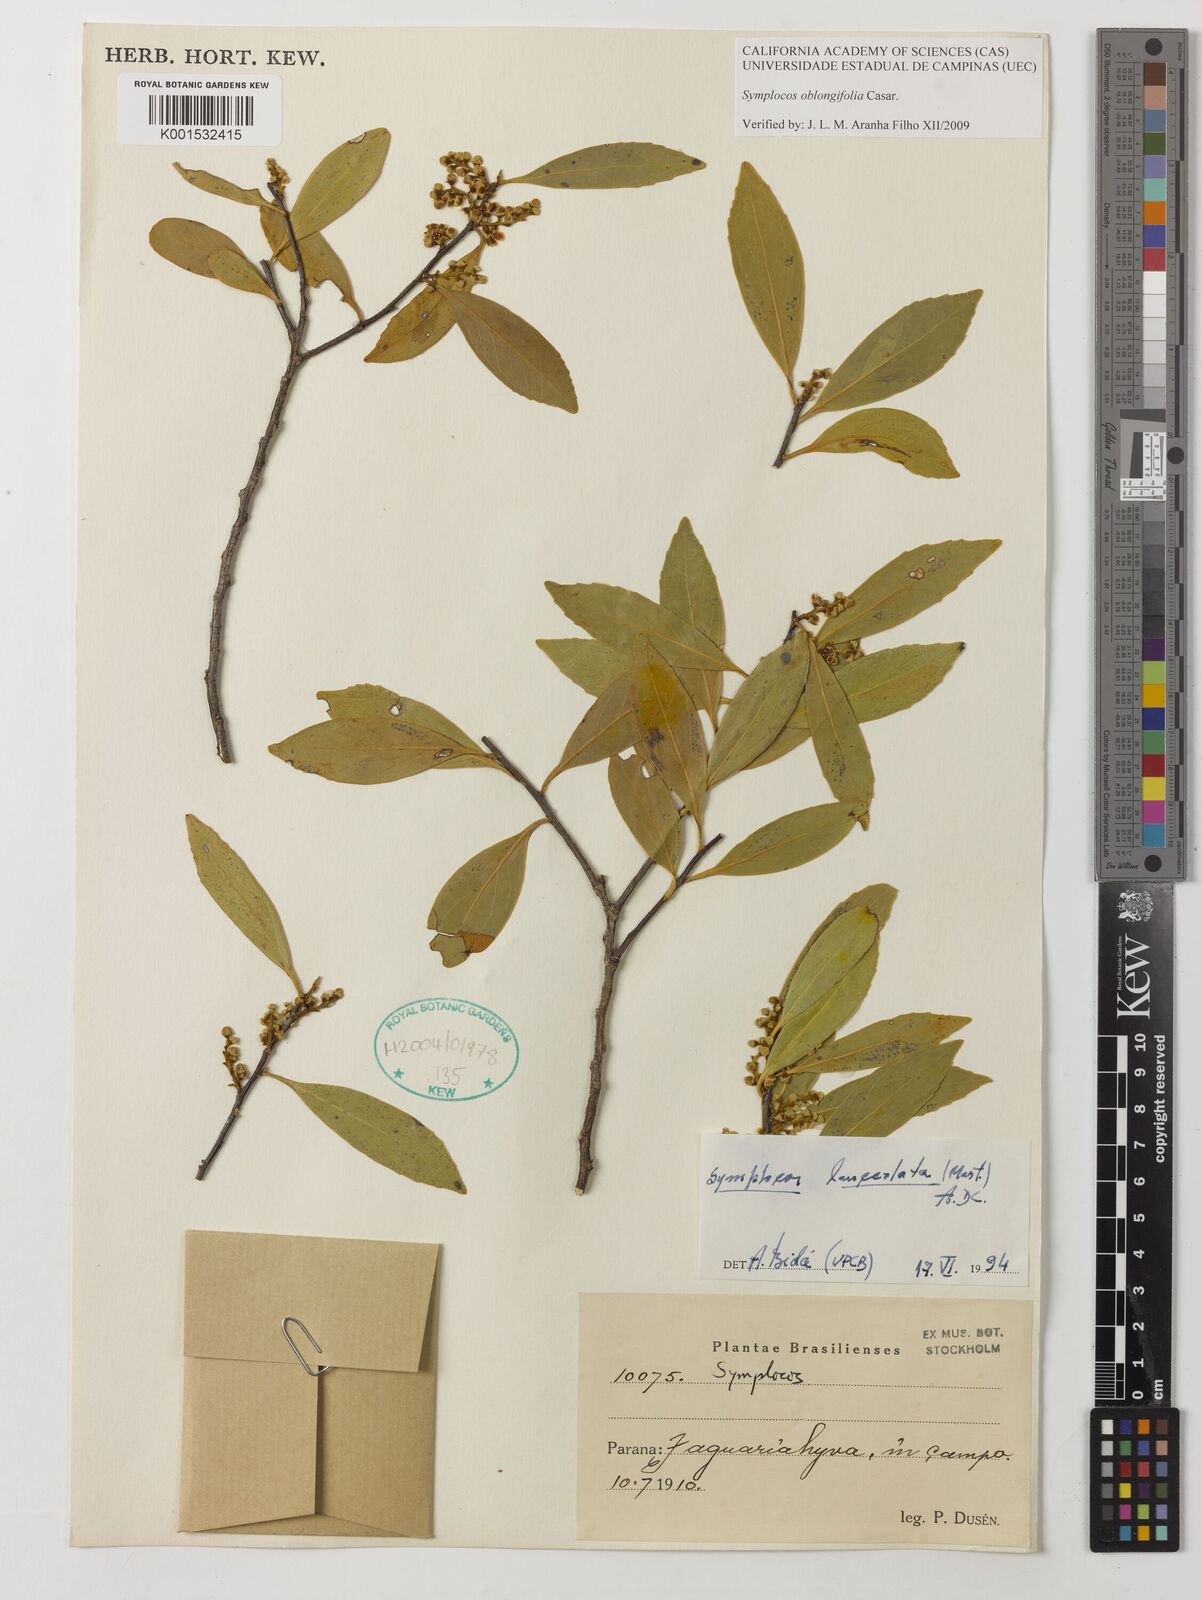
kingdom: Plantae
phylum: Tracheophyta
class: Magnoliopsida
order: Ericales
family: Symplocaceae
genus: Symplocos
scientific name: Symplocos oblongifolia
